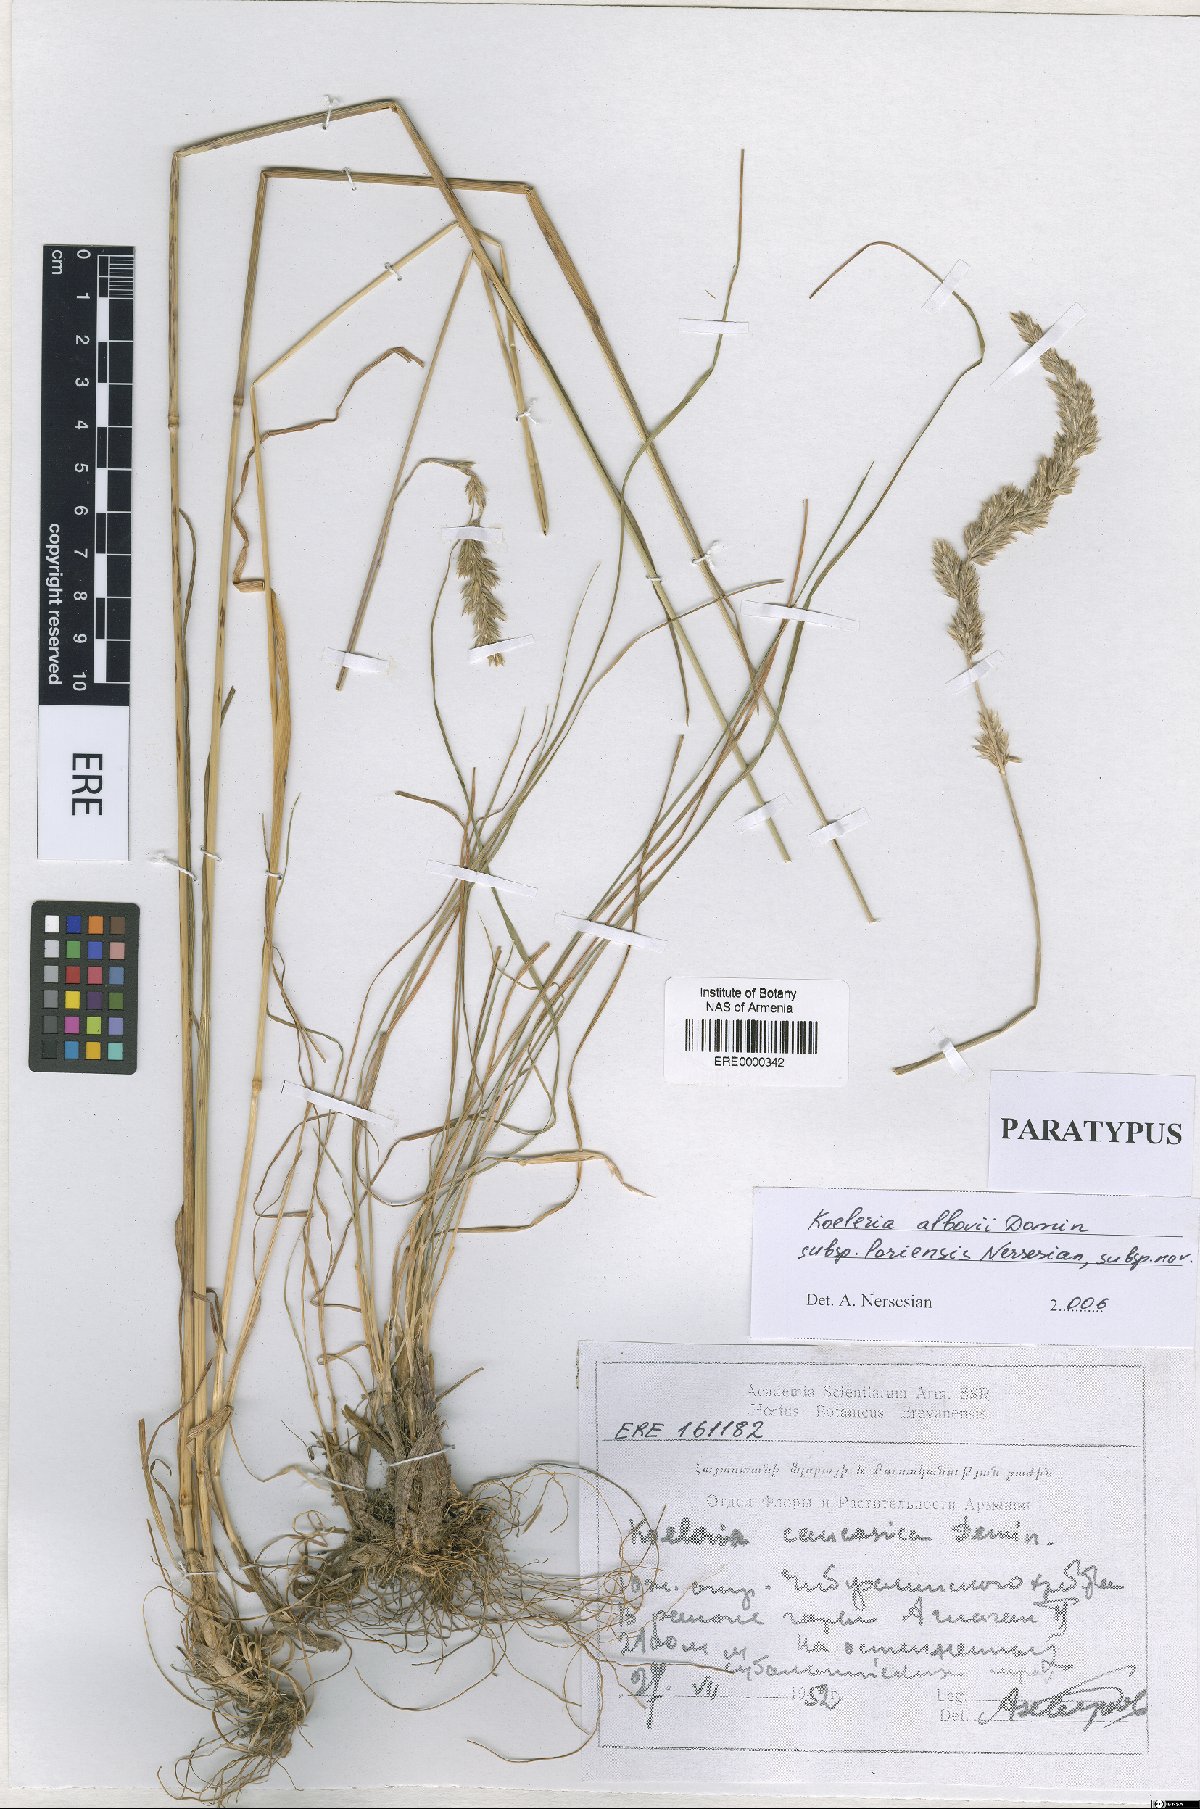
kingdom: Plantae
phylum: Tracheophyta
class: Liliopsida
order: Poales
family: Poaceae
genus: Koeleria
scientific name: Koeleria eriostachya
